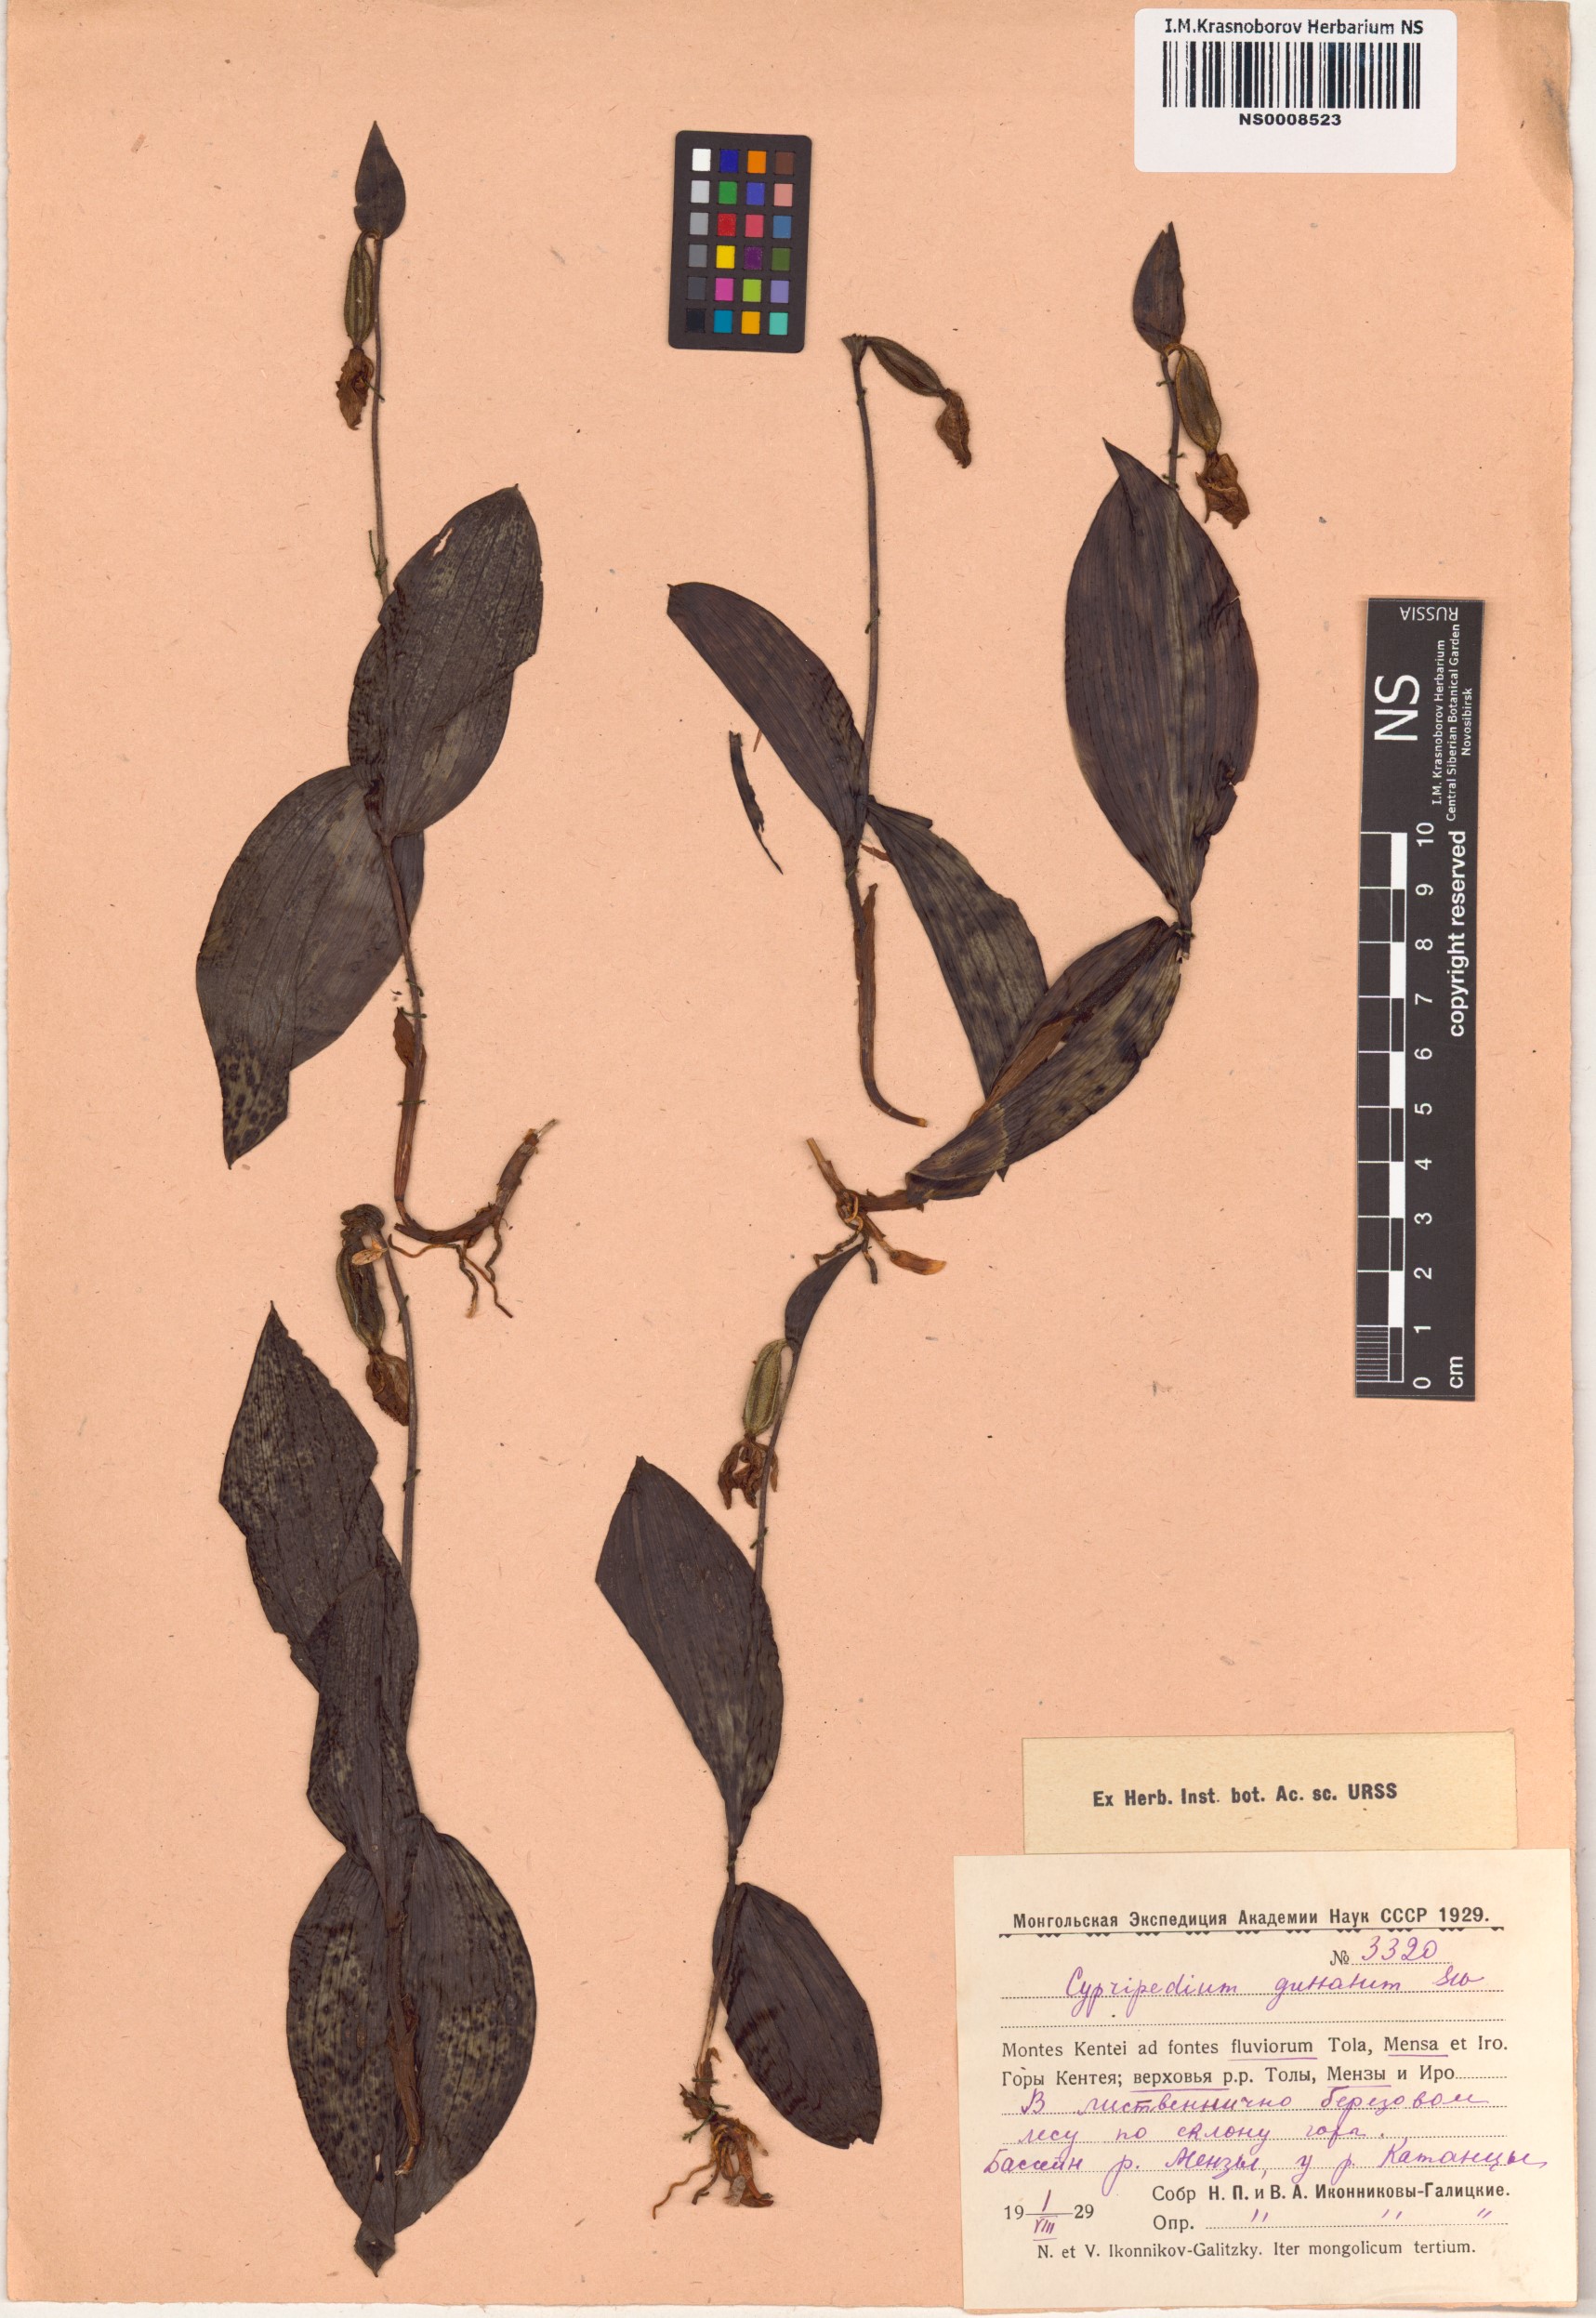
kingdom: Plantae
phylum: Tracheophyta
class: Liliopsida
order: Asparagales
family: Orchidaceae
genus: Cypripedium
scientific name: Cypripedium guttatum
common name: Pink lady slipper
